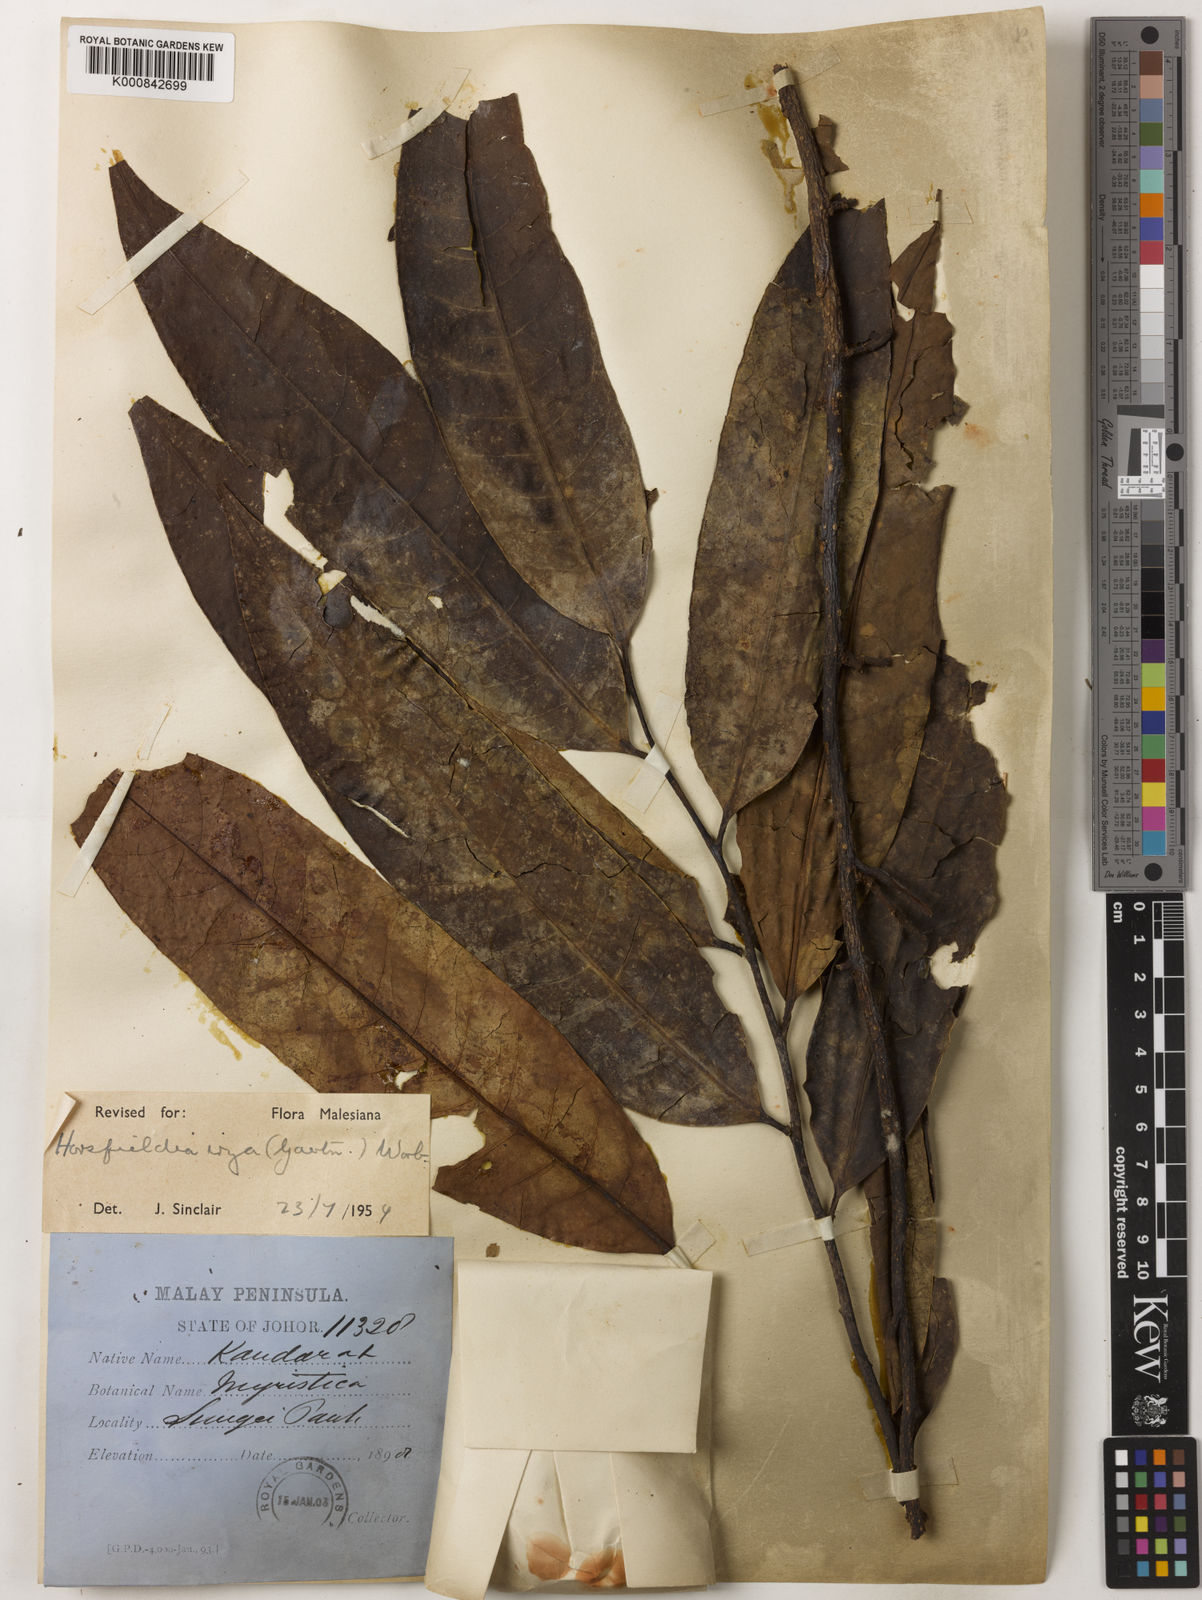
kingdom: Plantae
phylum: Tracheophyta
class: Magnoliopsida
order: Magnoliales
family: Myristicaceae
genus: Horsfieldia
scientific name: Horsfieldia irya
